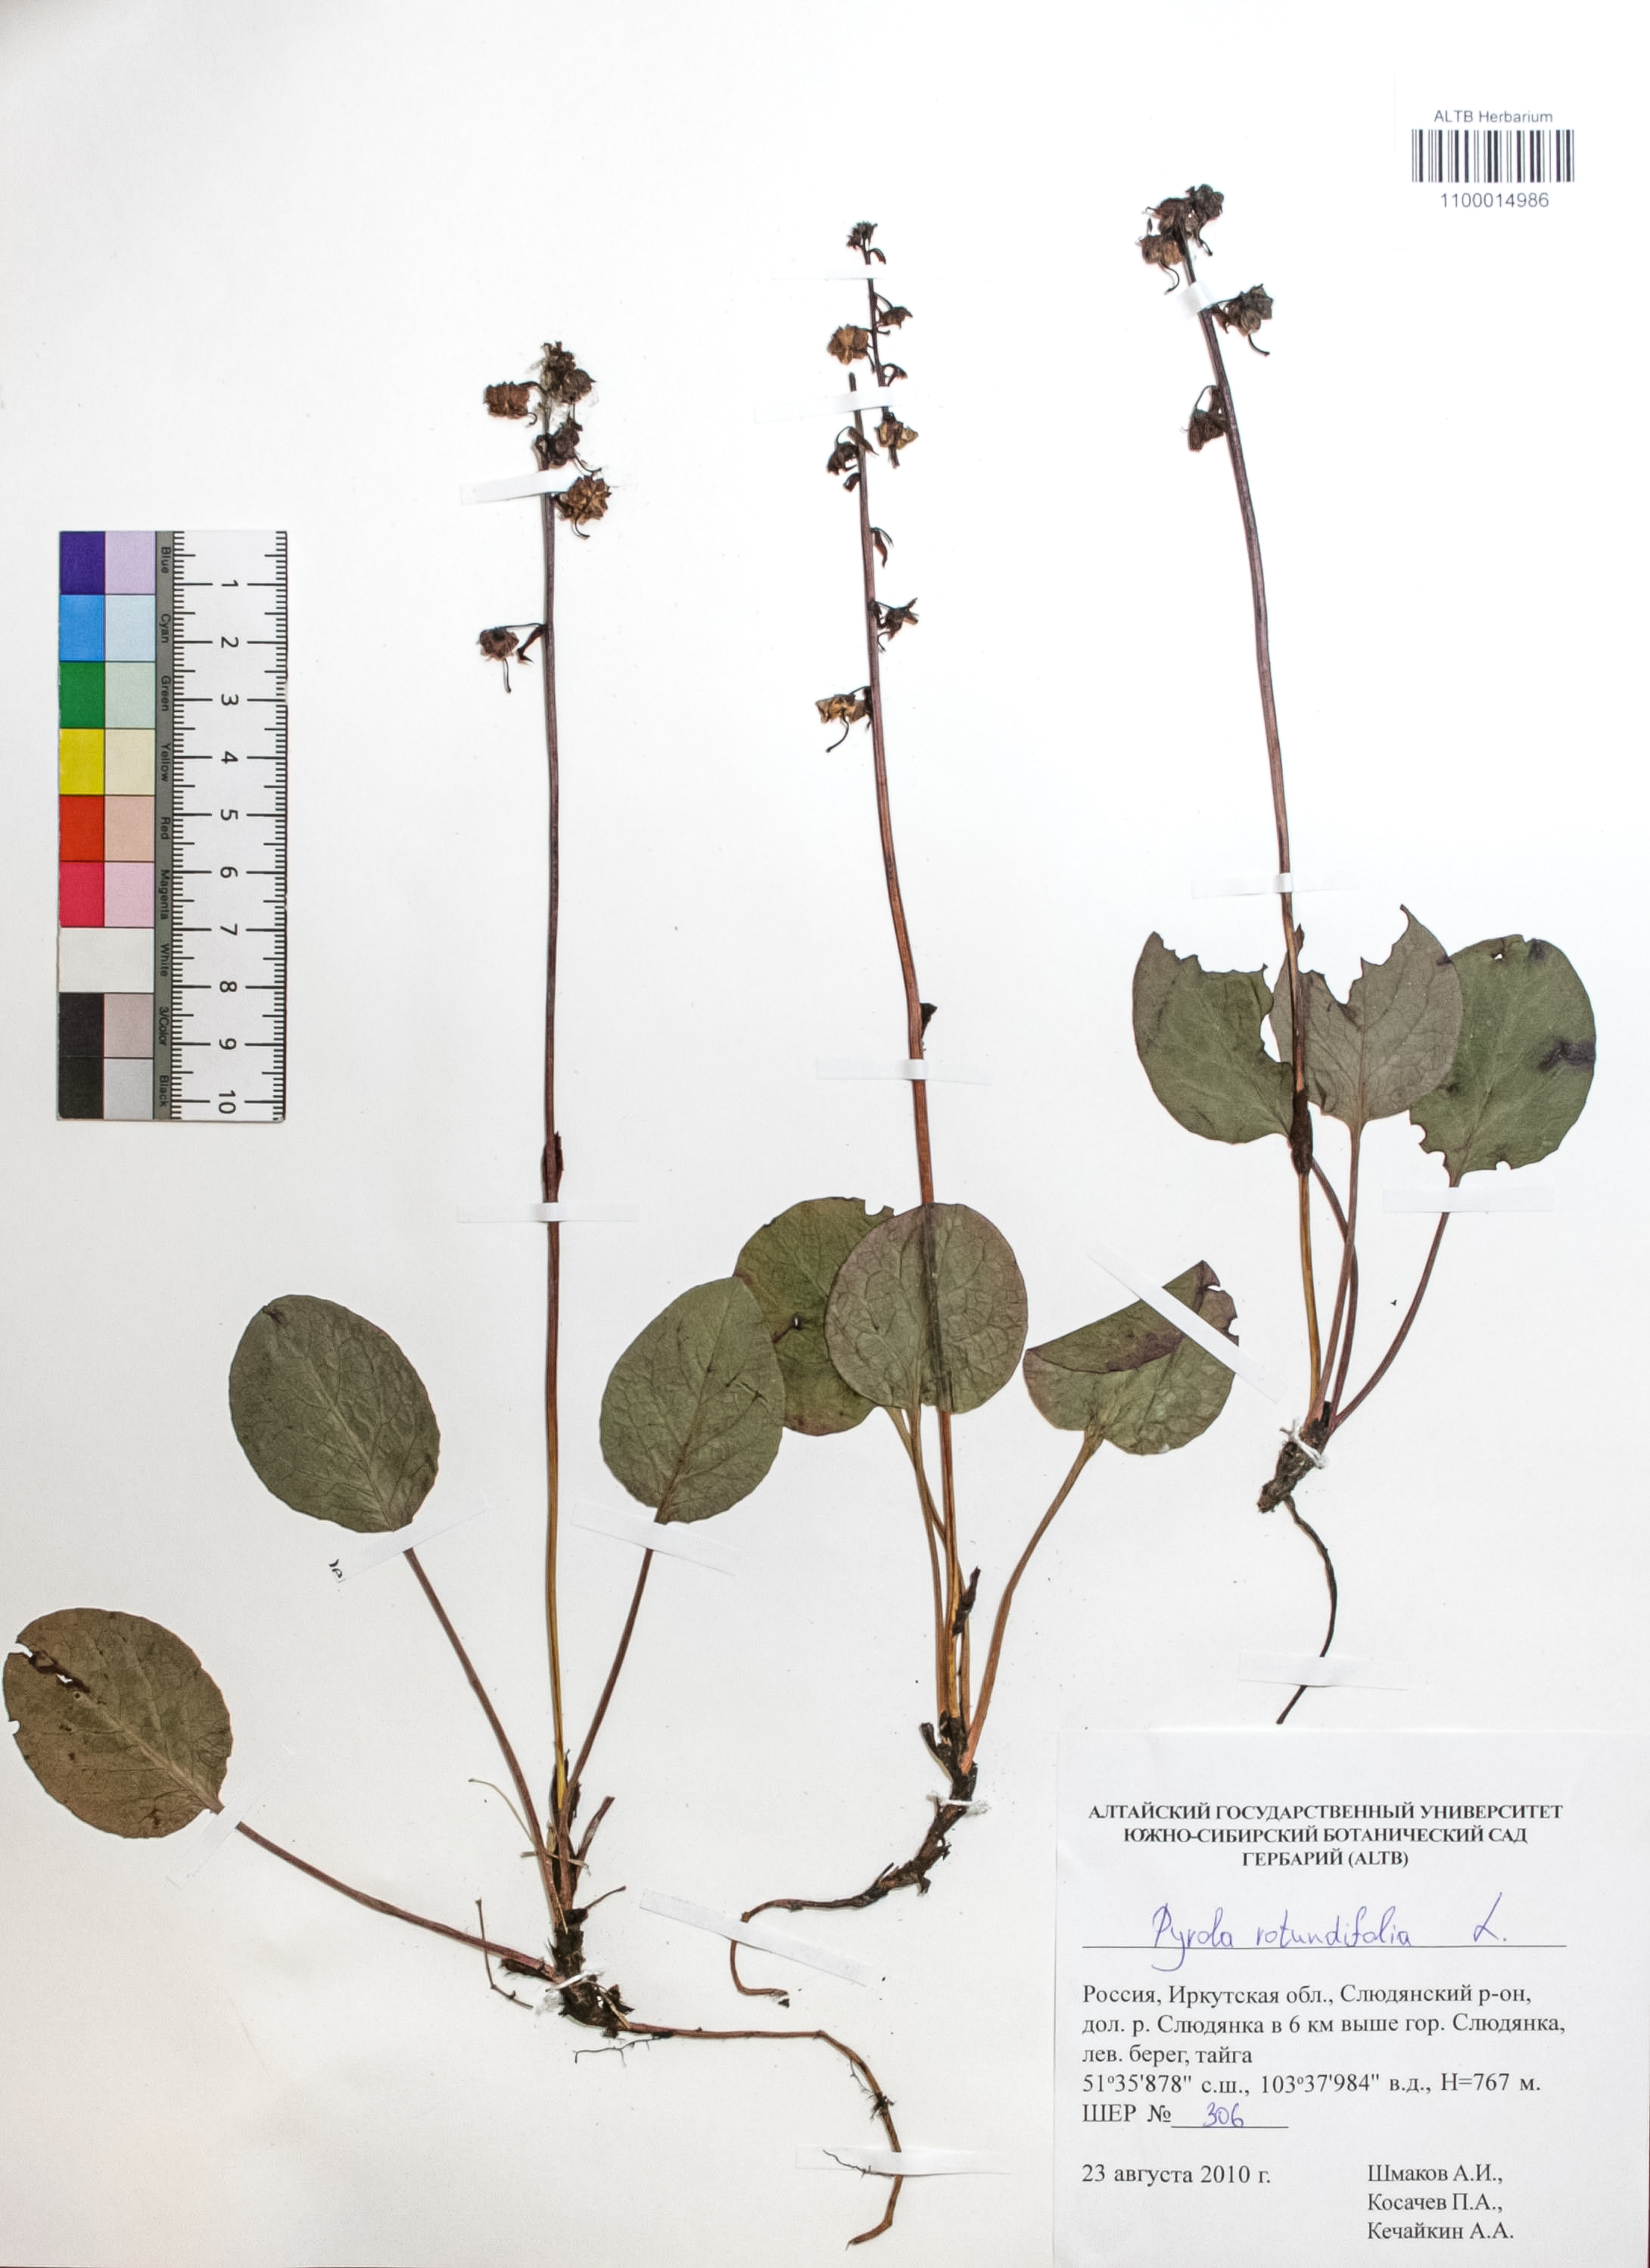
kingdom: Plantae
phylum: Tracheophyta
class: Magnoliopsida
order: Ericales
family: Ericaceae
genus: Pyrola
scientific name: Pyrola rotundifolia
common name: Round-leaved wintergreen
